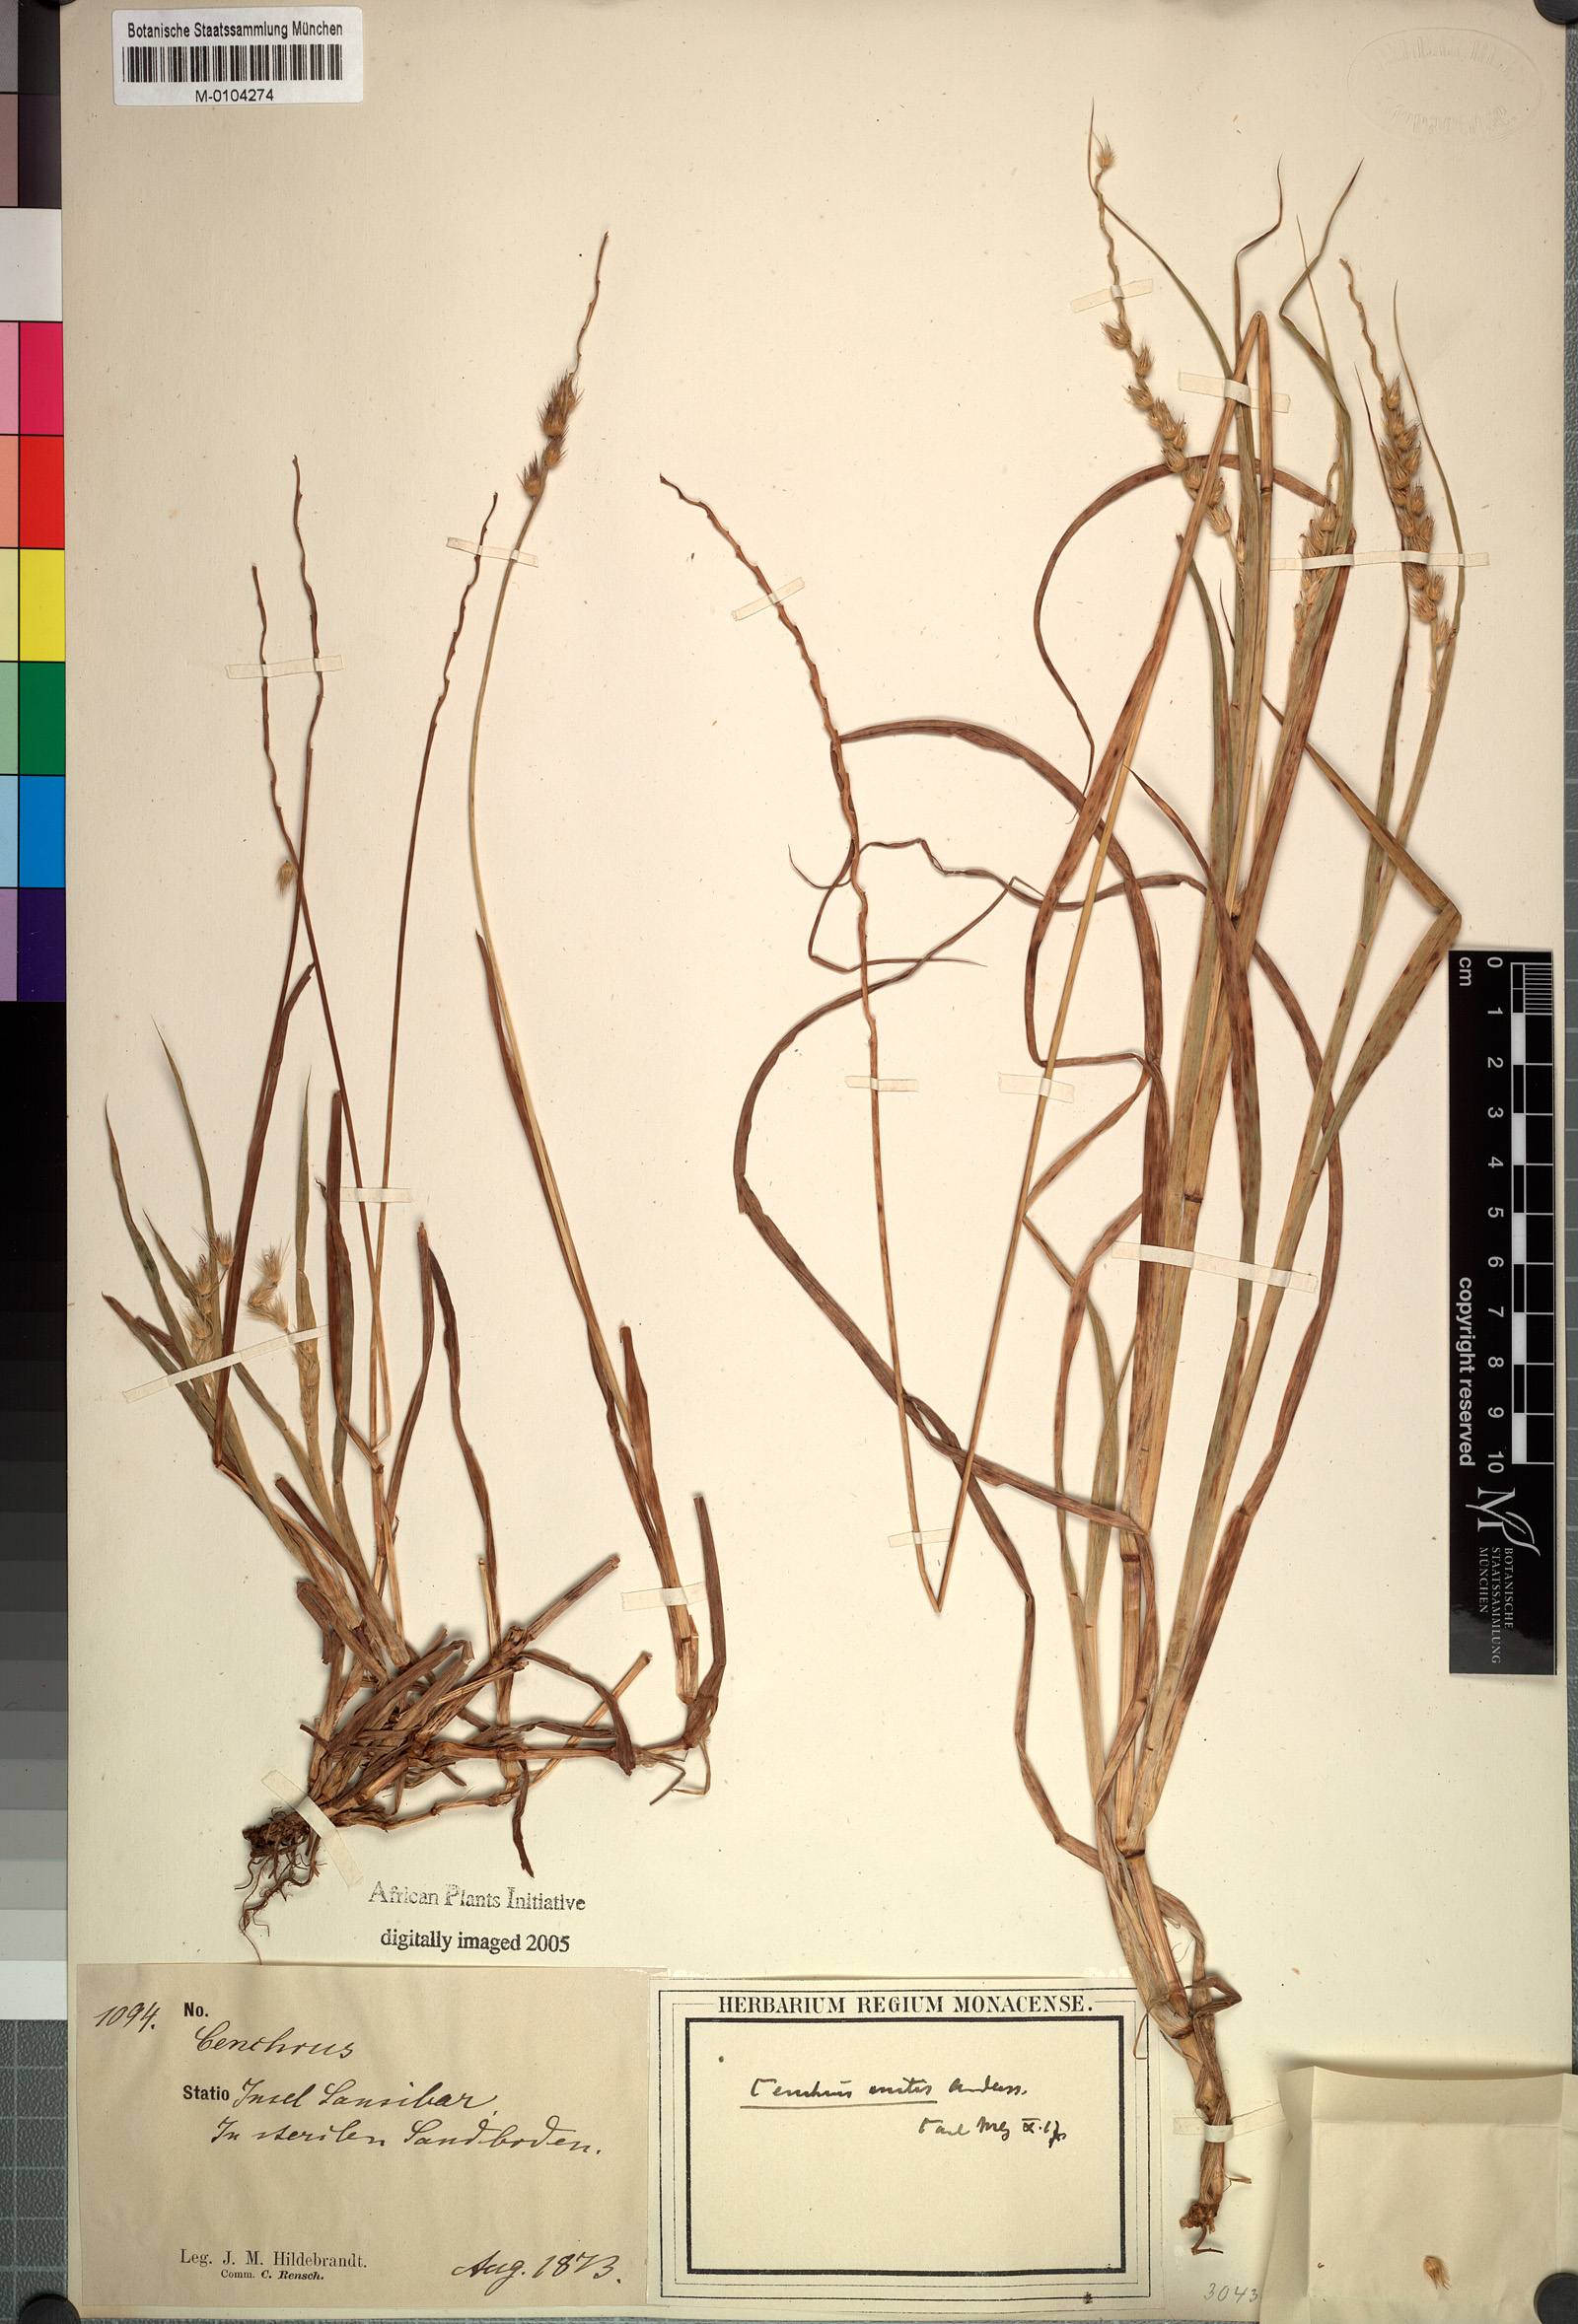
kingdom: Plantae
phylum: Tracheophyta
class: Liliopsida
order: Poales
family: Poaceae
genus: Cenchrus
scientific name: Cenchrus biflorus
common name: Indian sandbur
